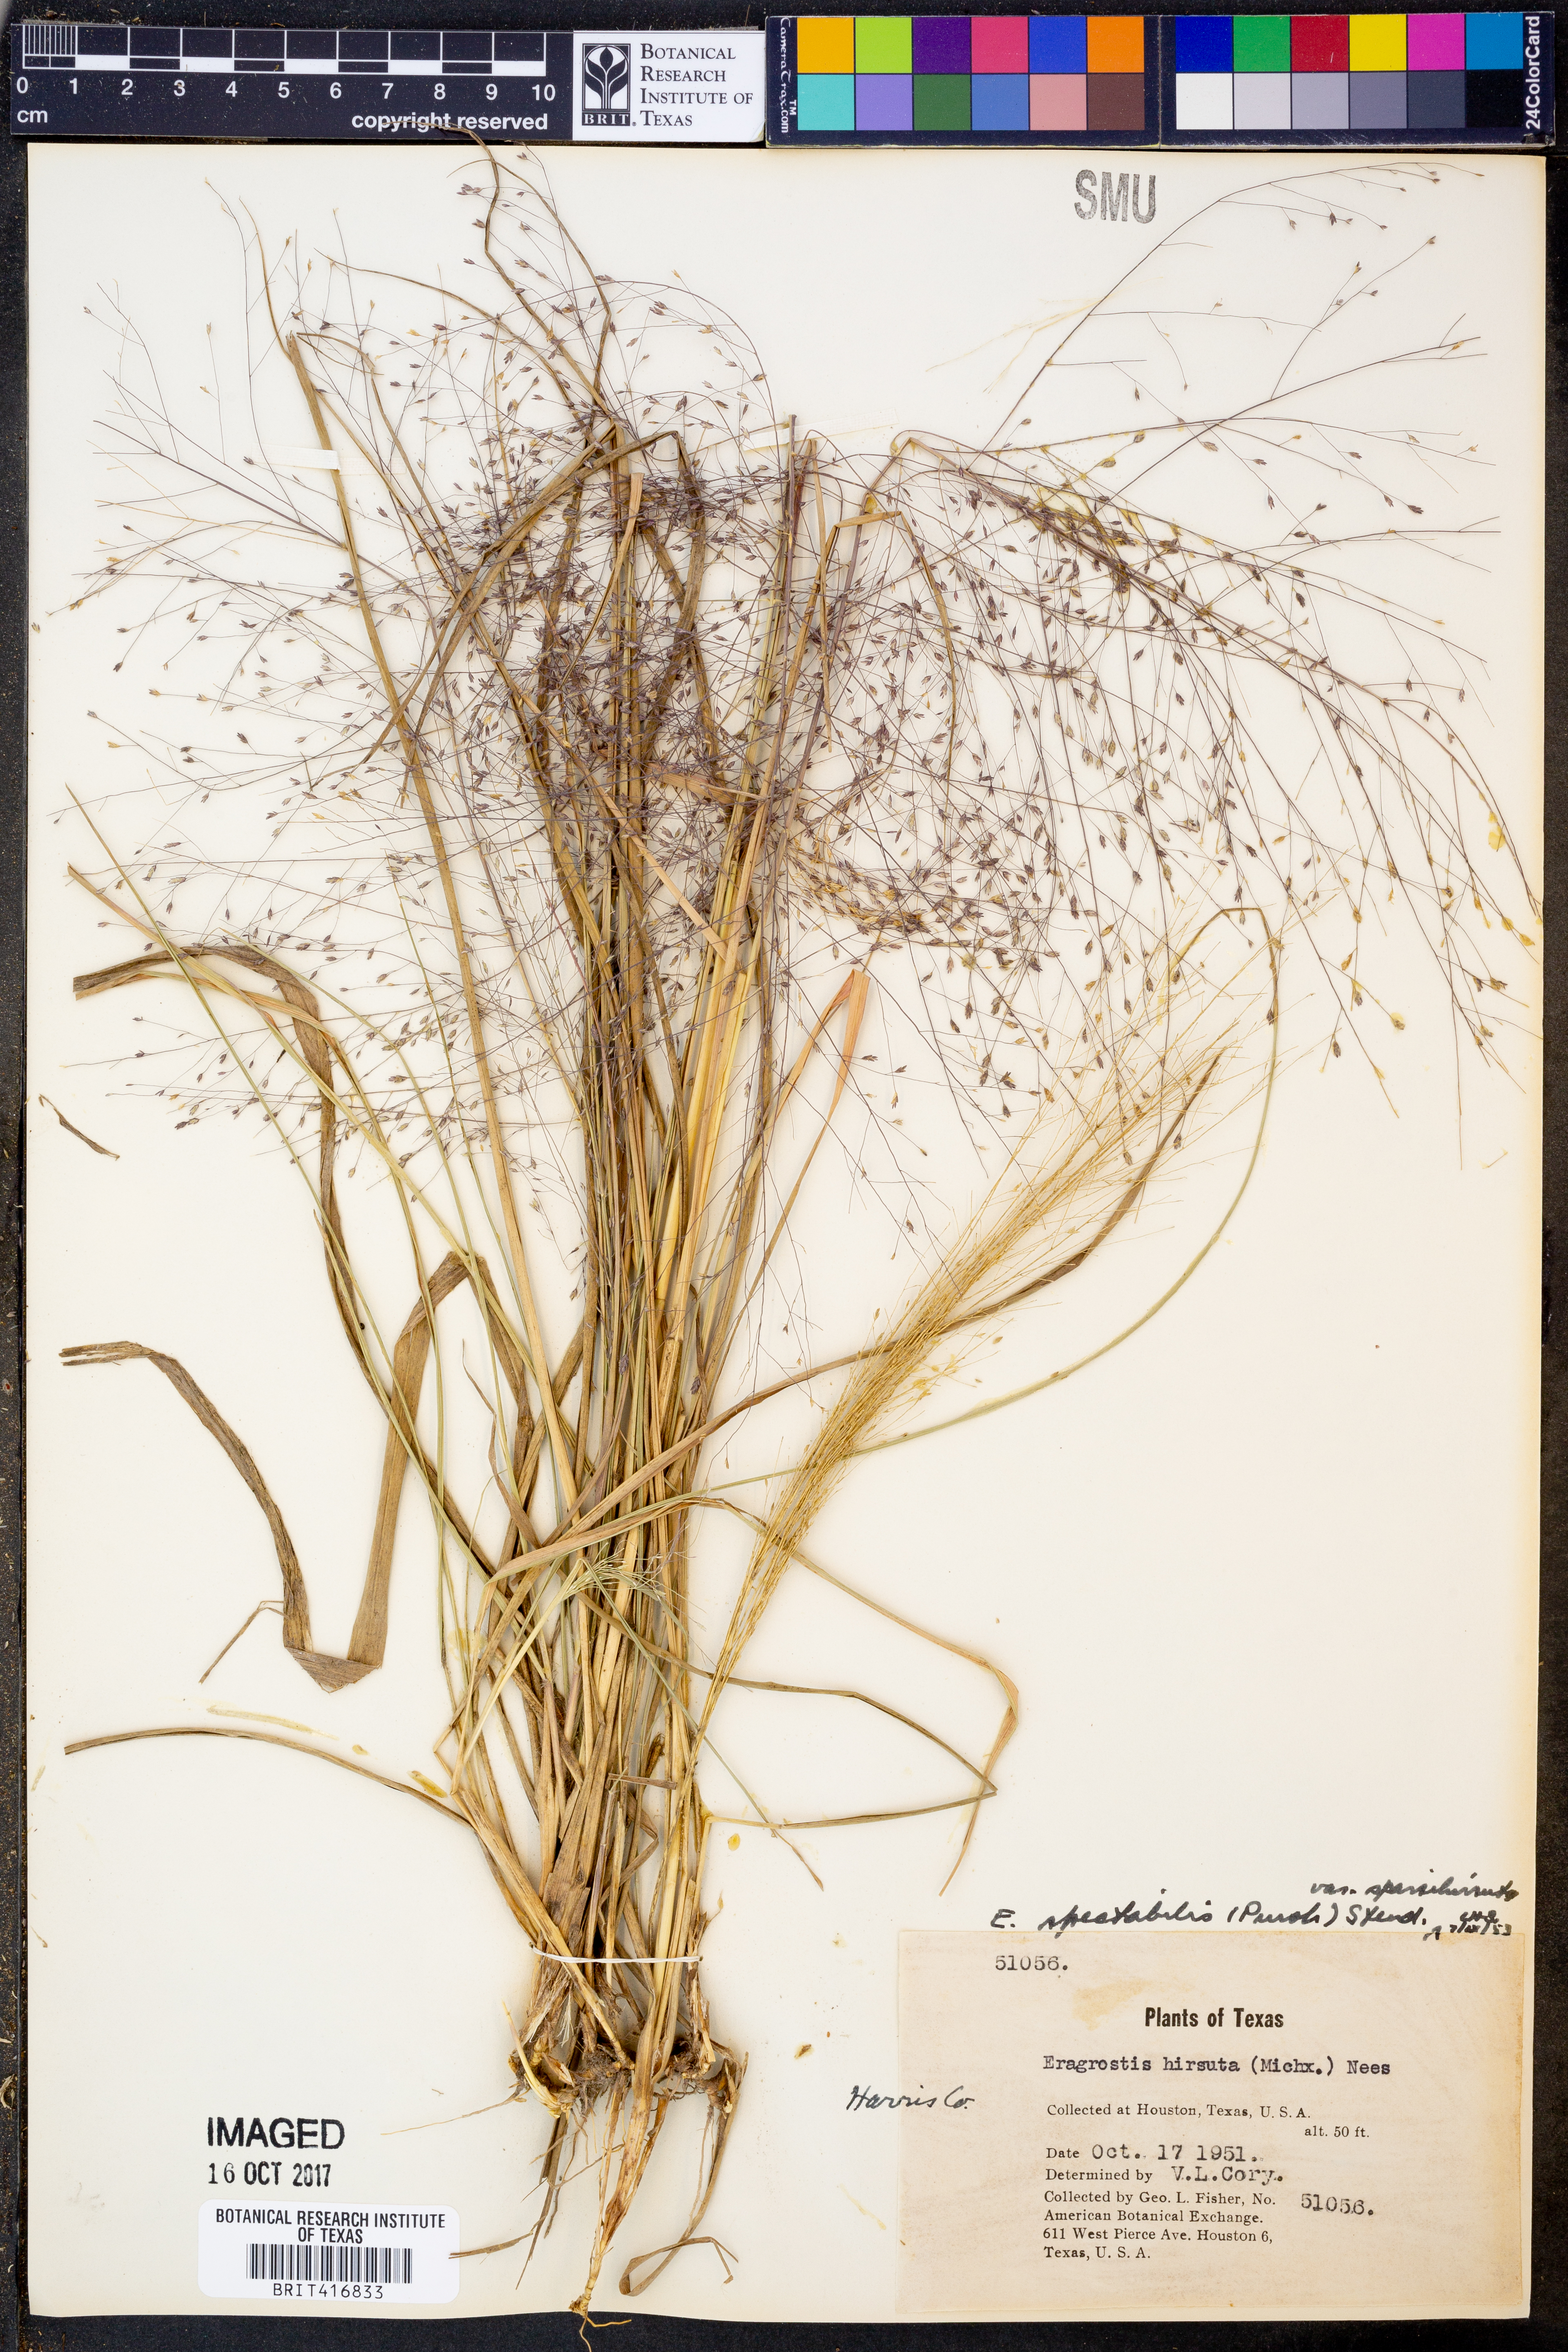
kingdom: Plantae
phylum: Tracheophyta
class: Liliopsida
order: Poales
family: Poaceae
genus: Eragrostis
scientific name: Eragrostis spectabilis
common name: Petticoat-climber
